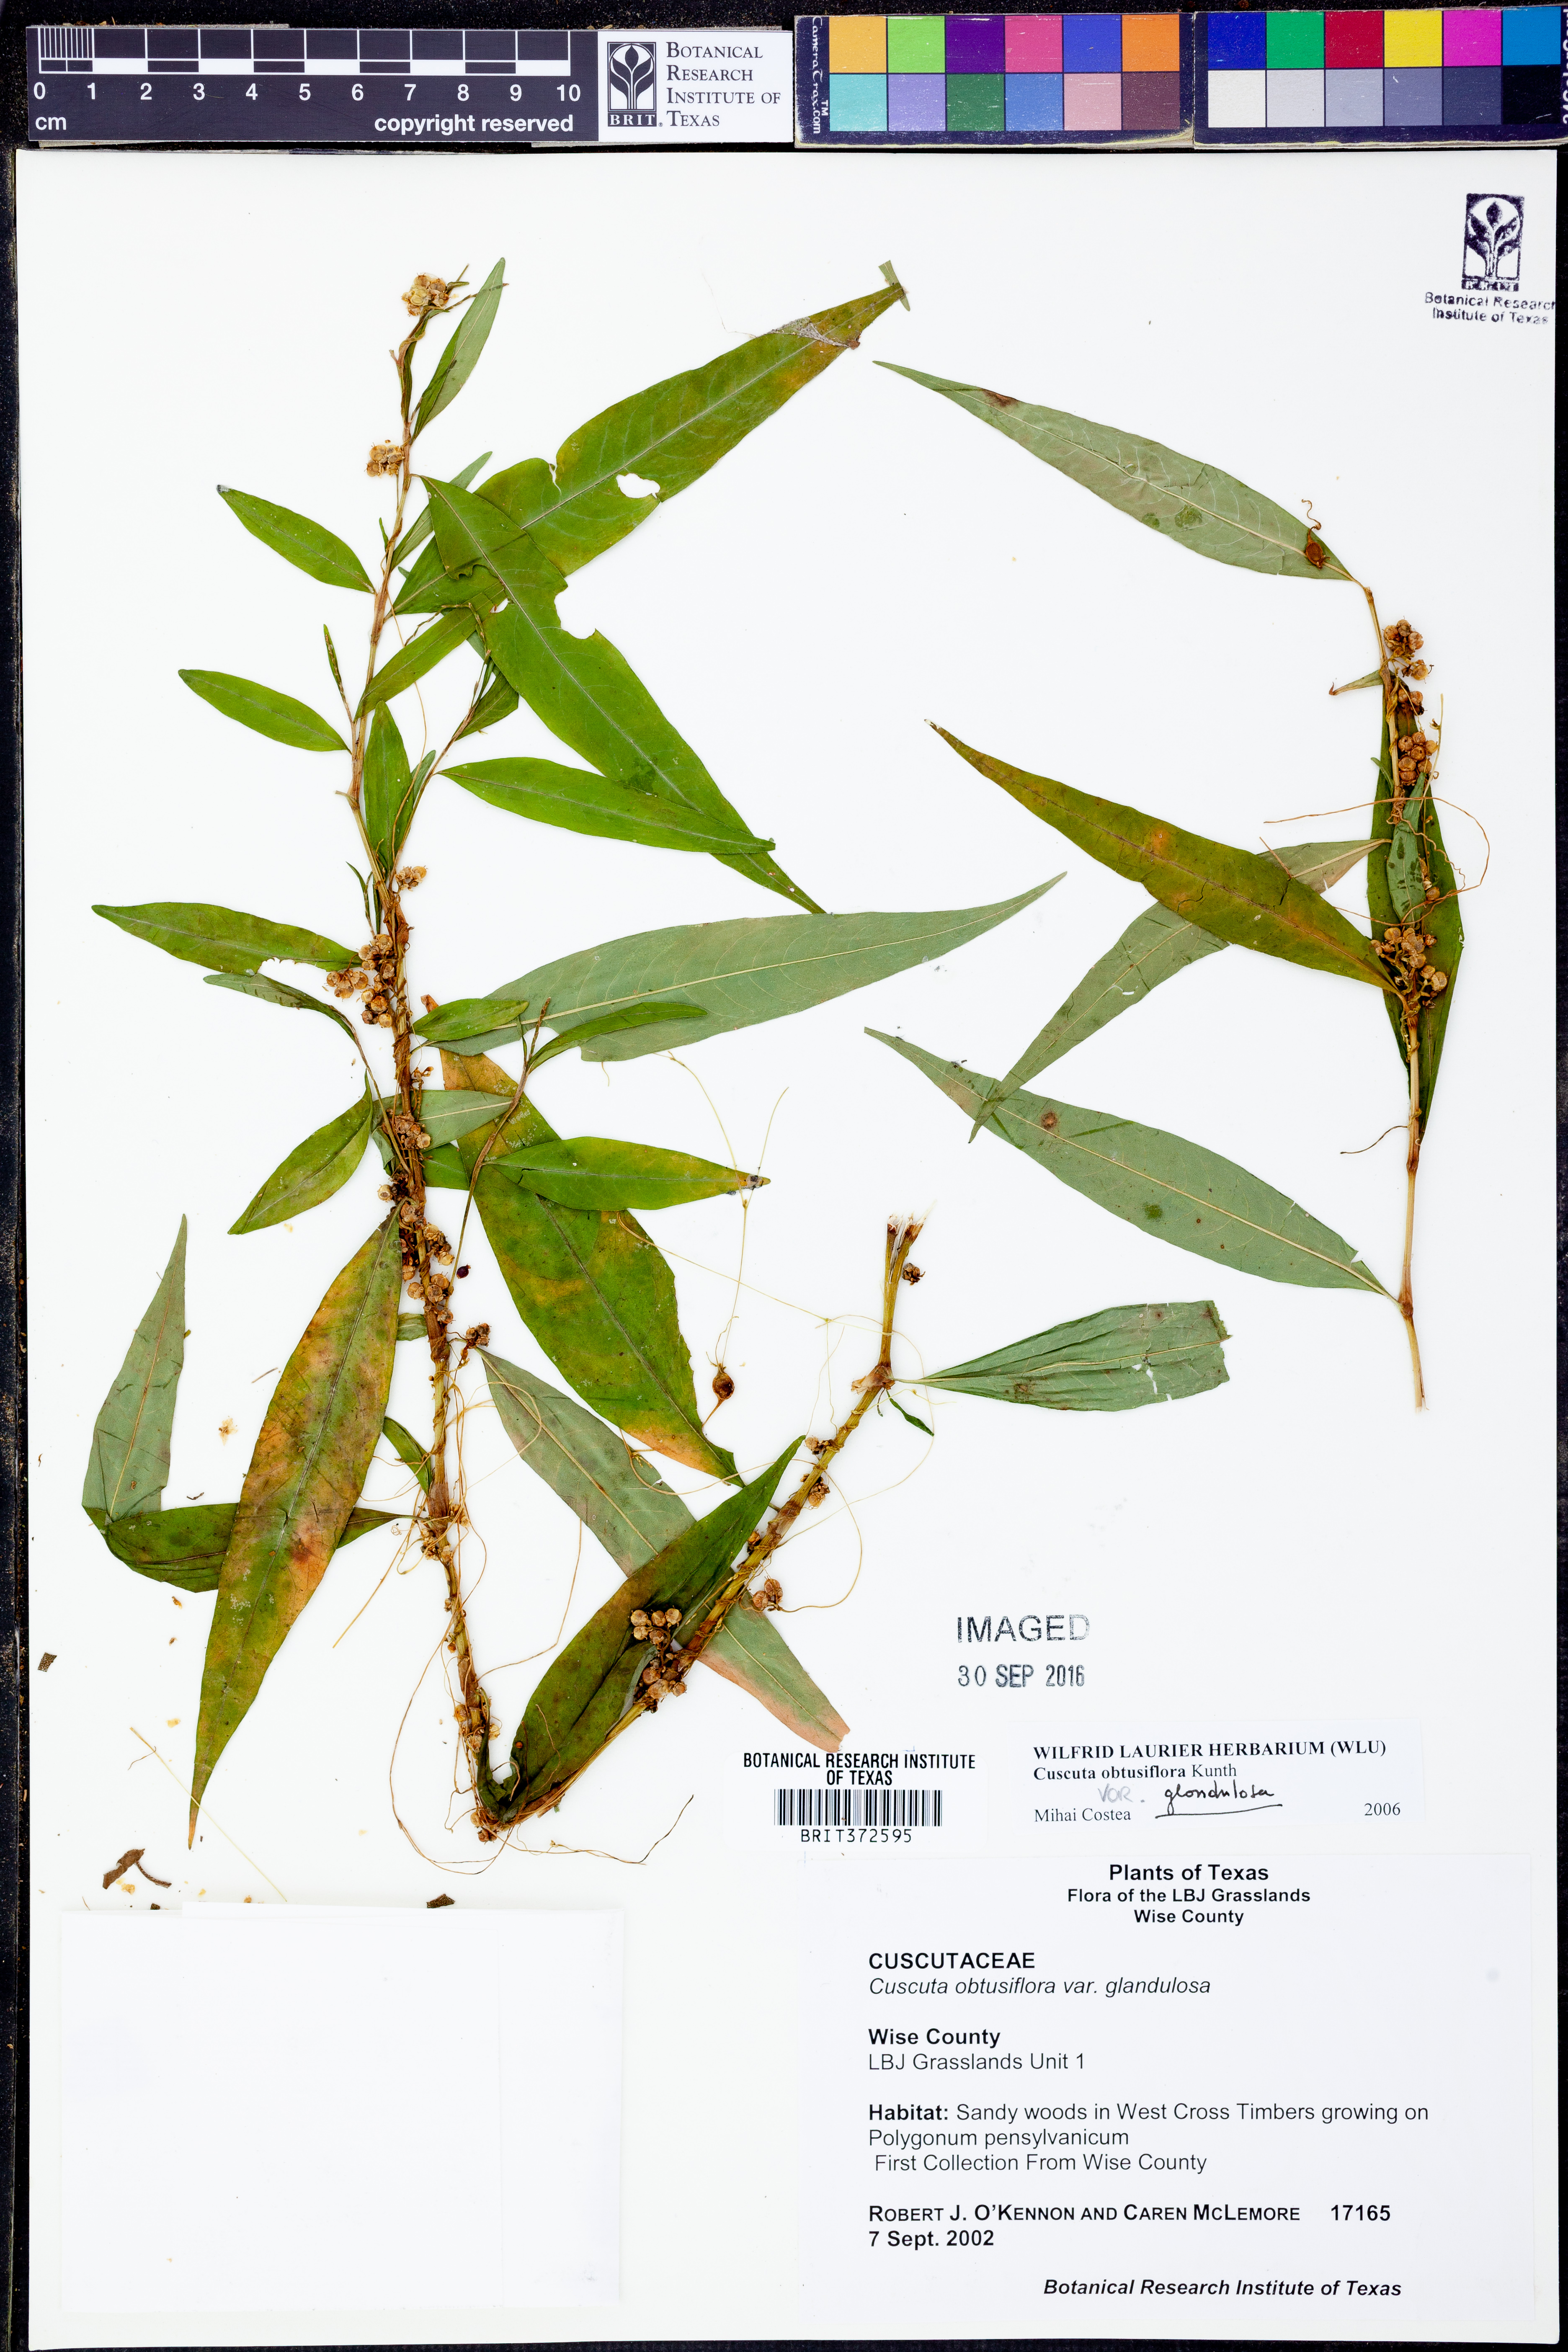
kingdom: Plantae
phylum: Tracheophyta
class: Magnoliopsida
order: Solanales
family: Convolvulaceae
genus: Cuscuta
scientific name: Cuscuta obtusiflora
